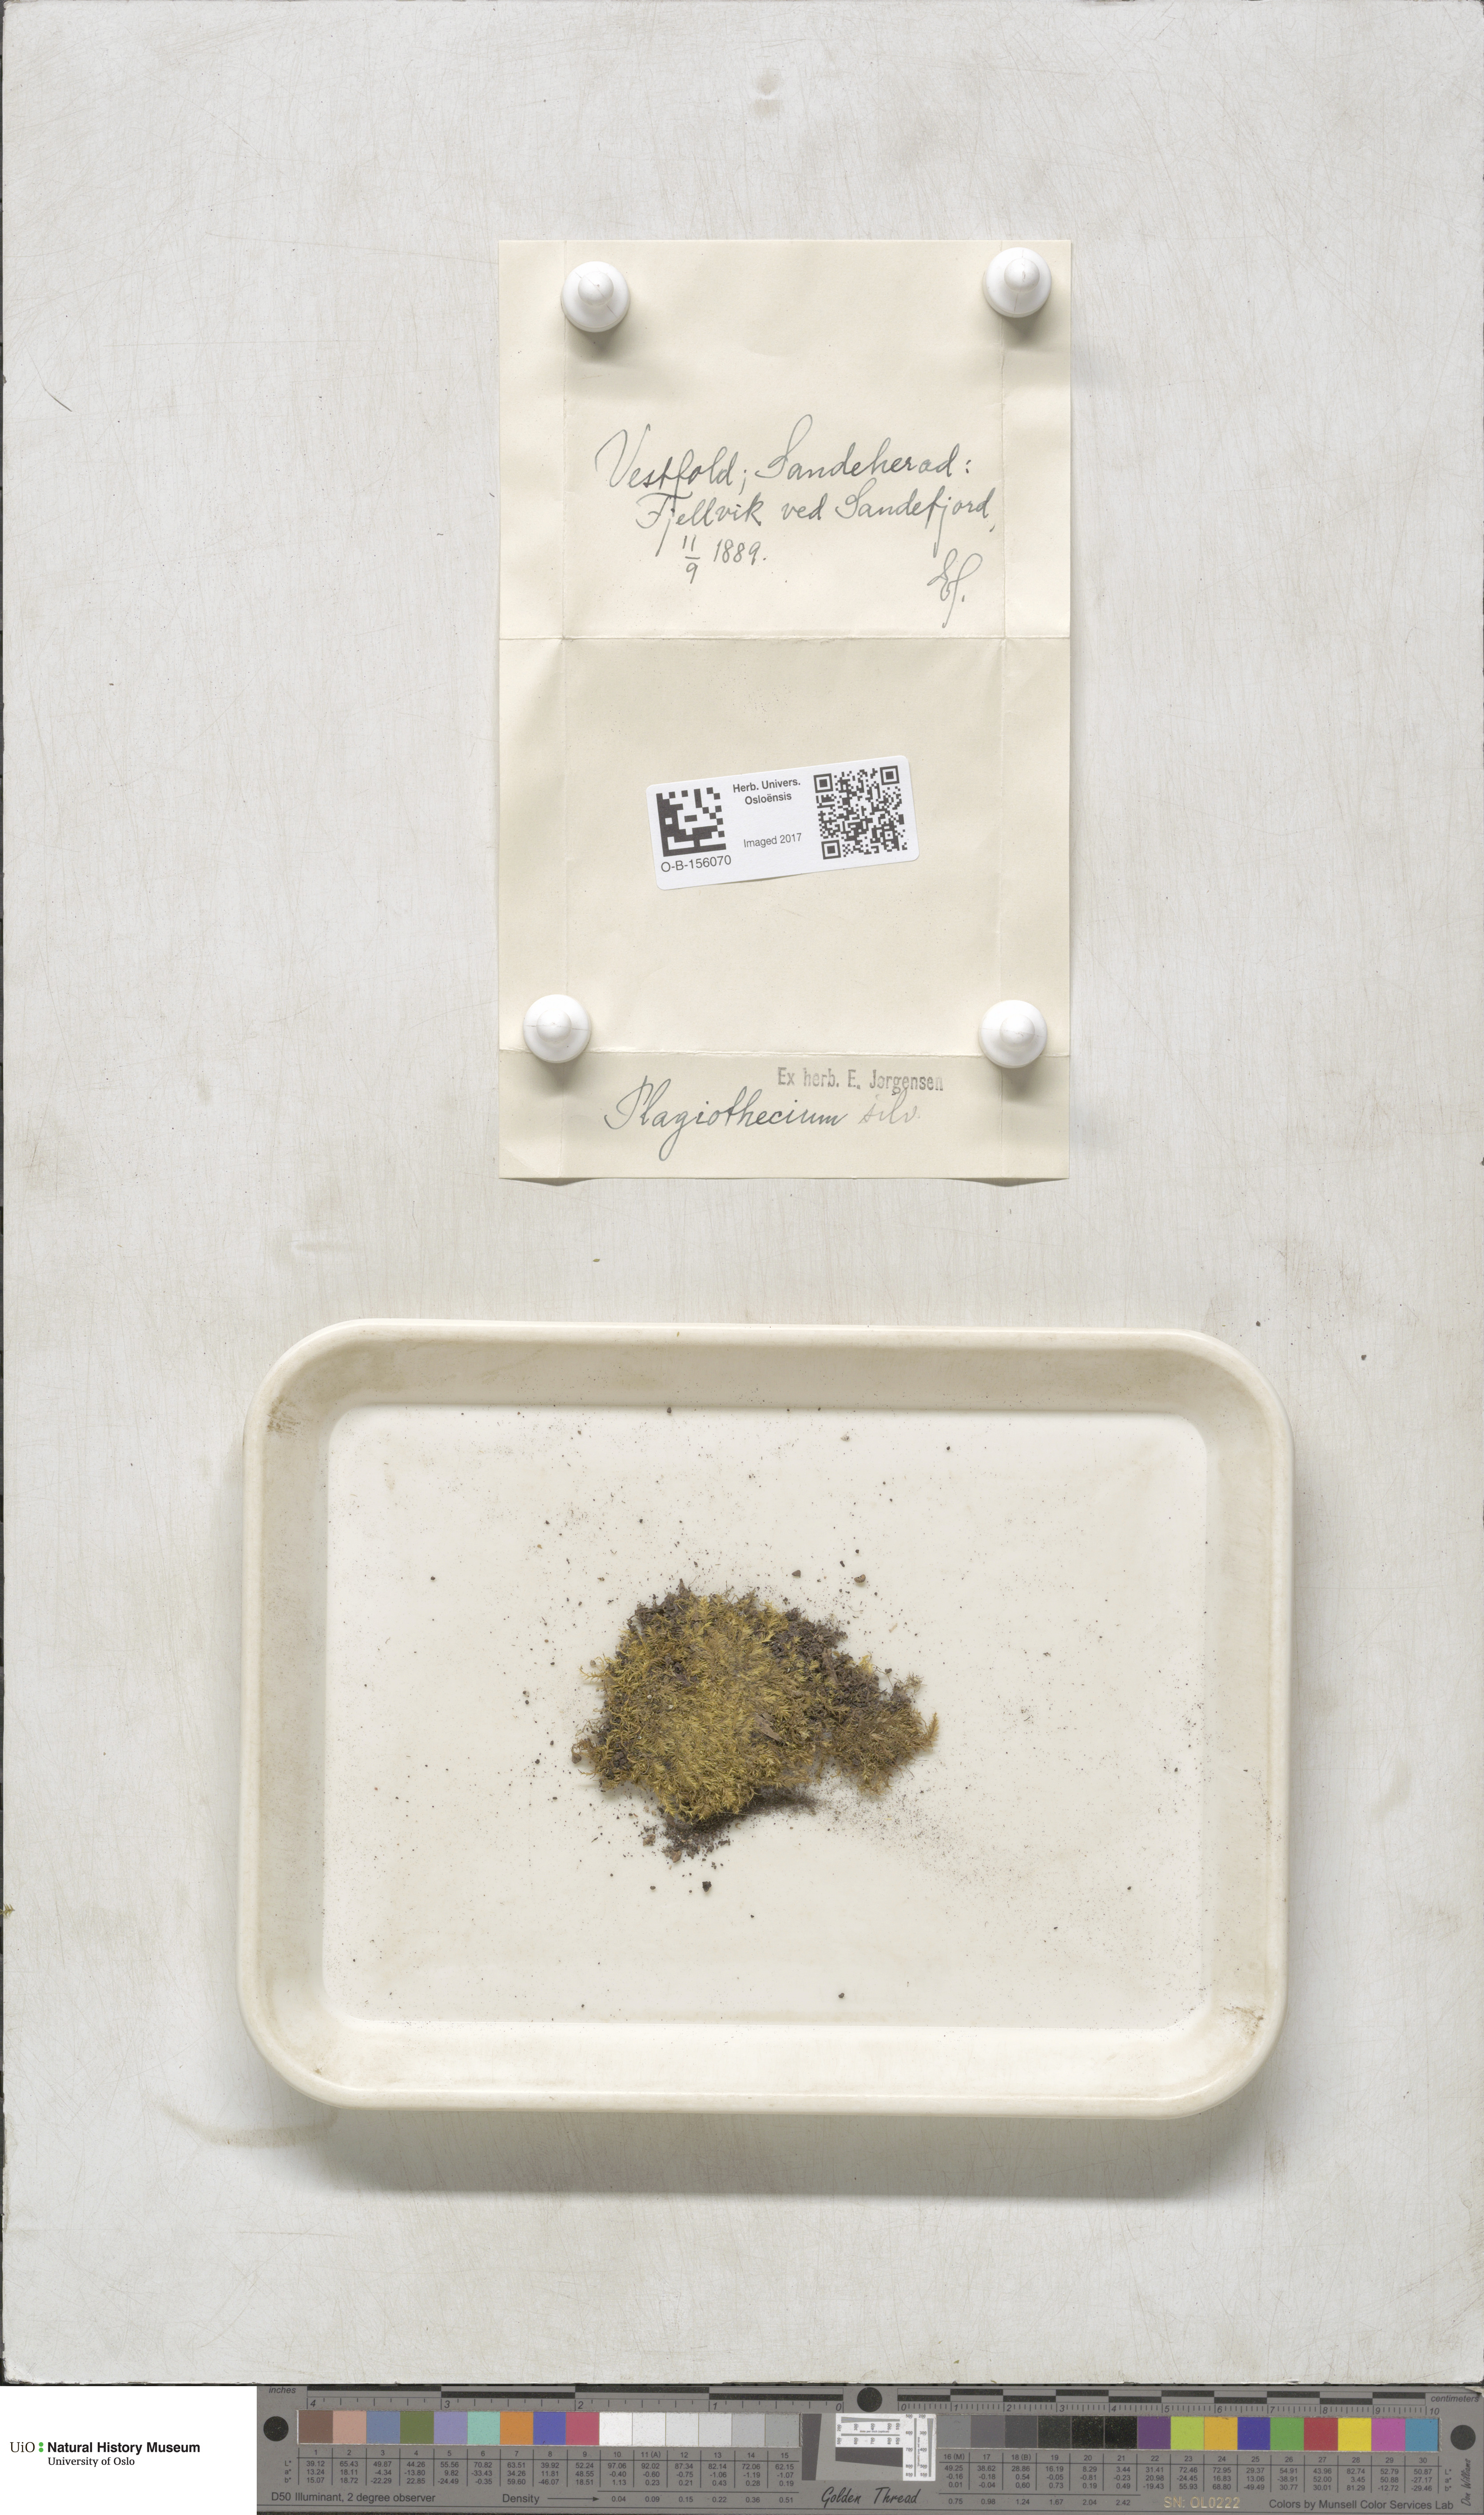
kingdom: Plantae
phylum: Bryophyta
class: Bryopsida
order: Hypnales
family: Plagiotheciaceae
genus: Plagiothecium
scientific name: Plagiothecium nemorale
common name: Woodsy silk-moss
